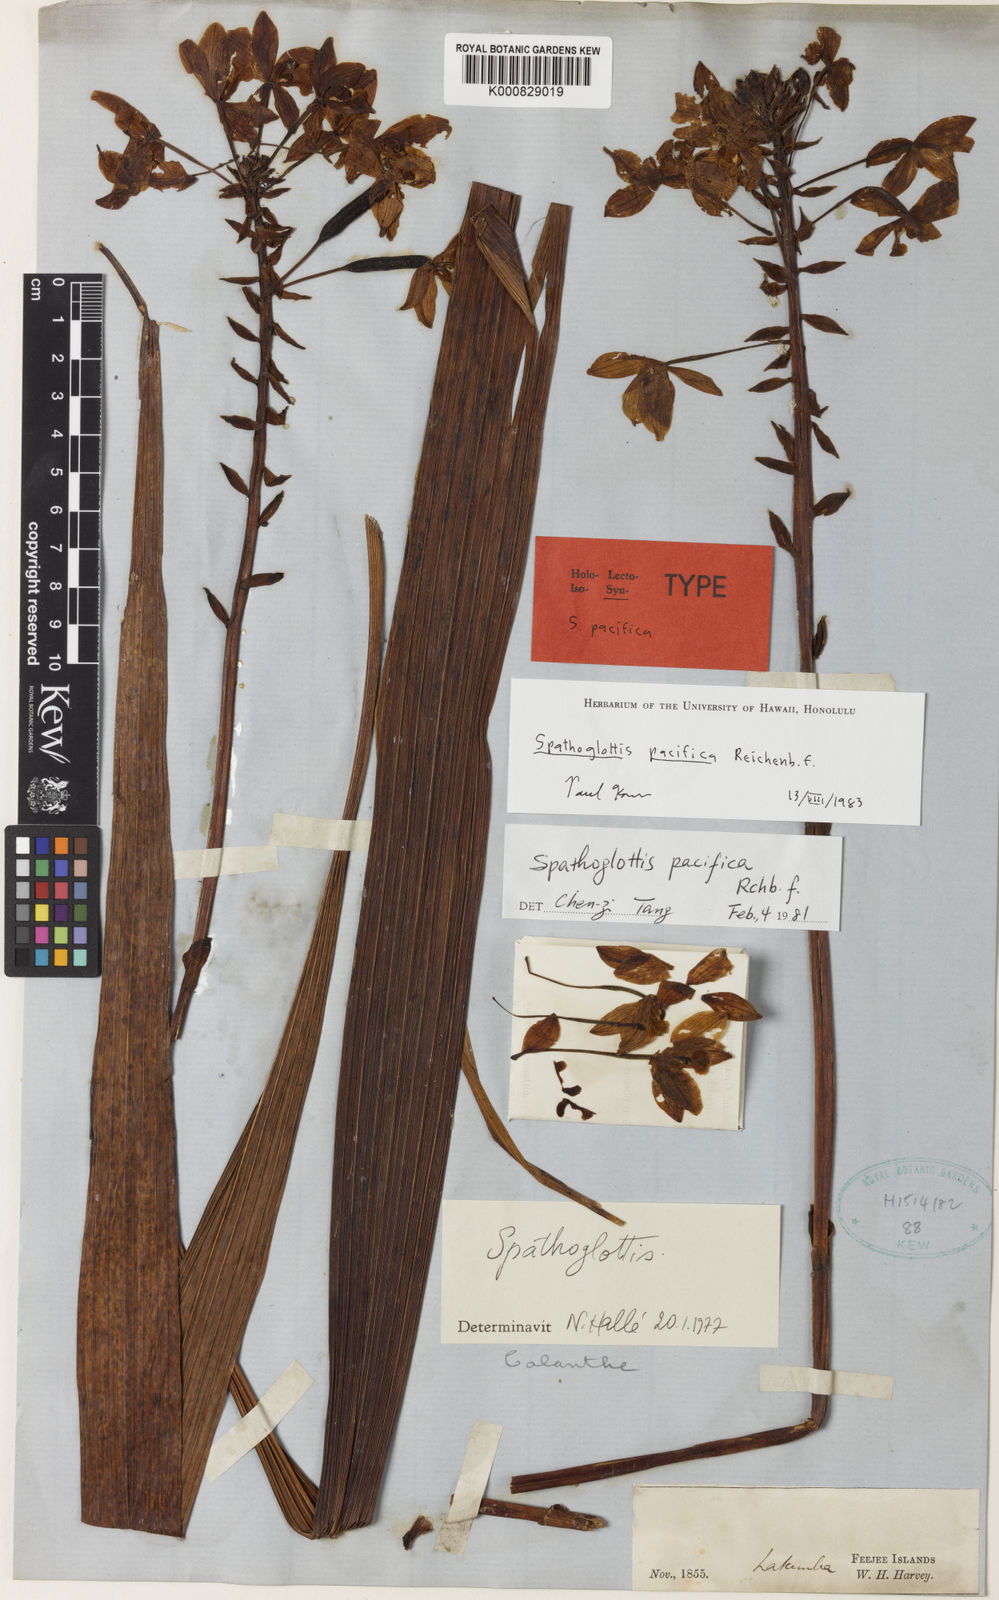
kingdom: Plantae
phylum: Tracheophyta
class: Liliopsida
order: Asparagales
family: Orchidaceae
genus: Spathoglottis
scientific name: Spathoglottis pacifica
